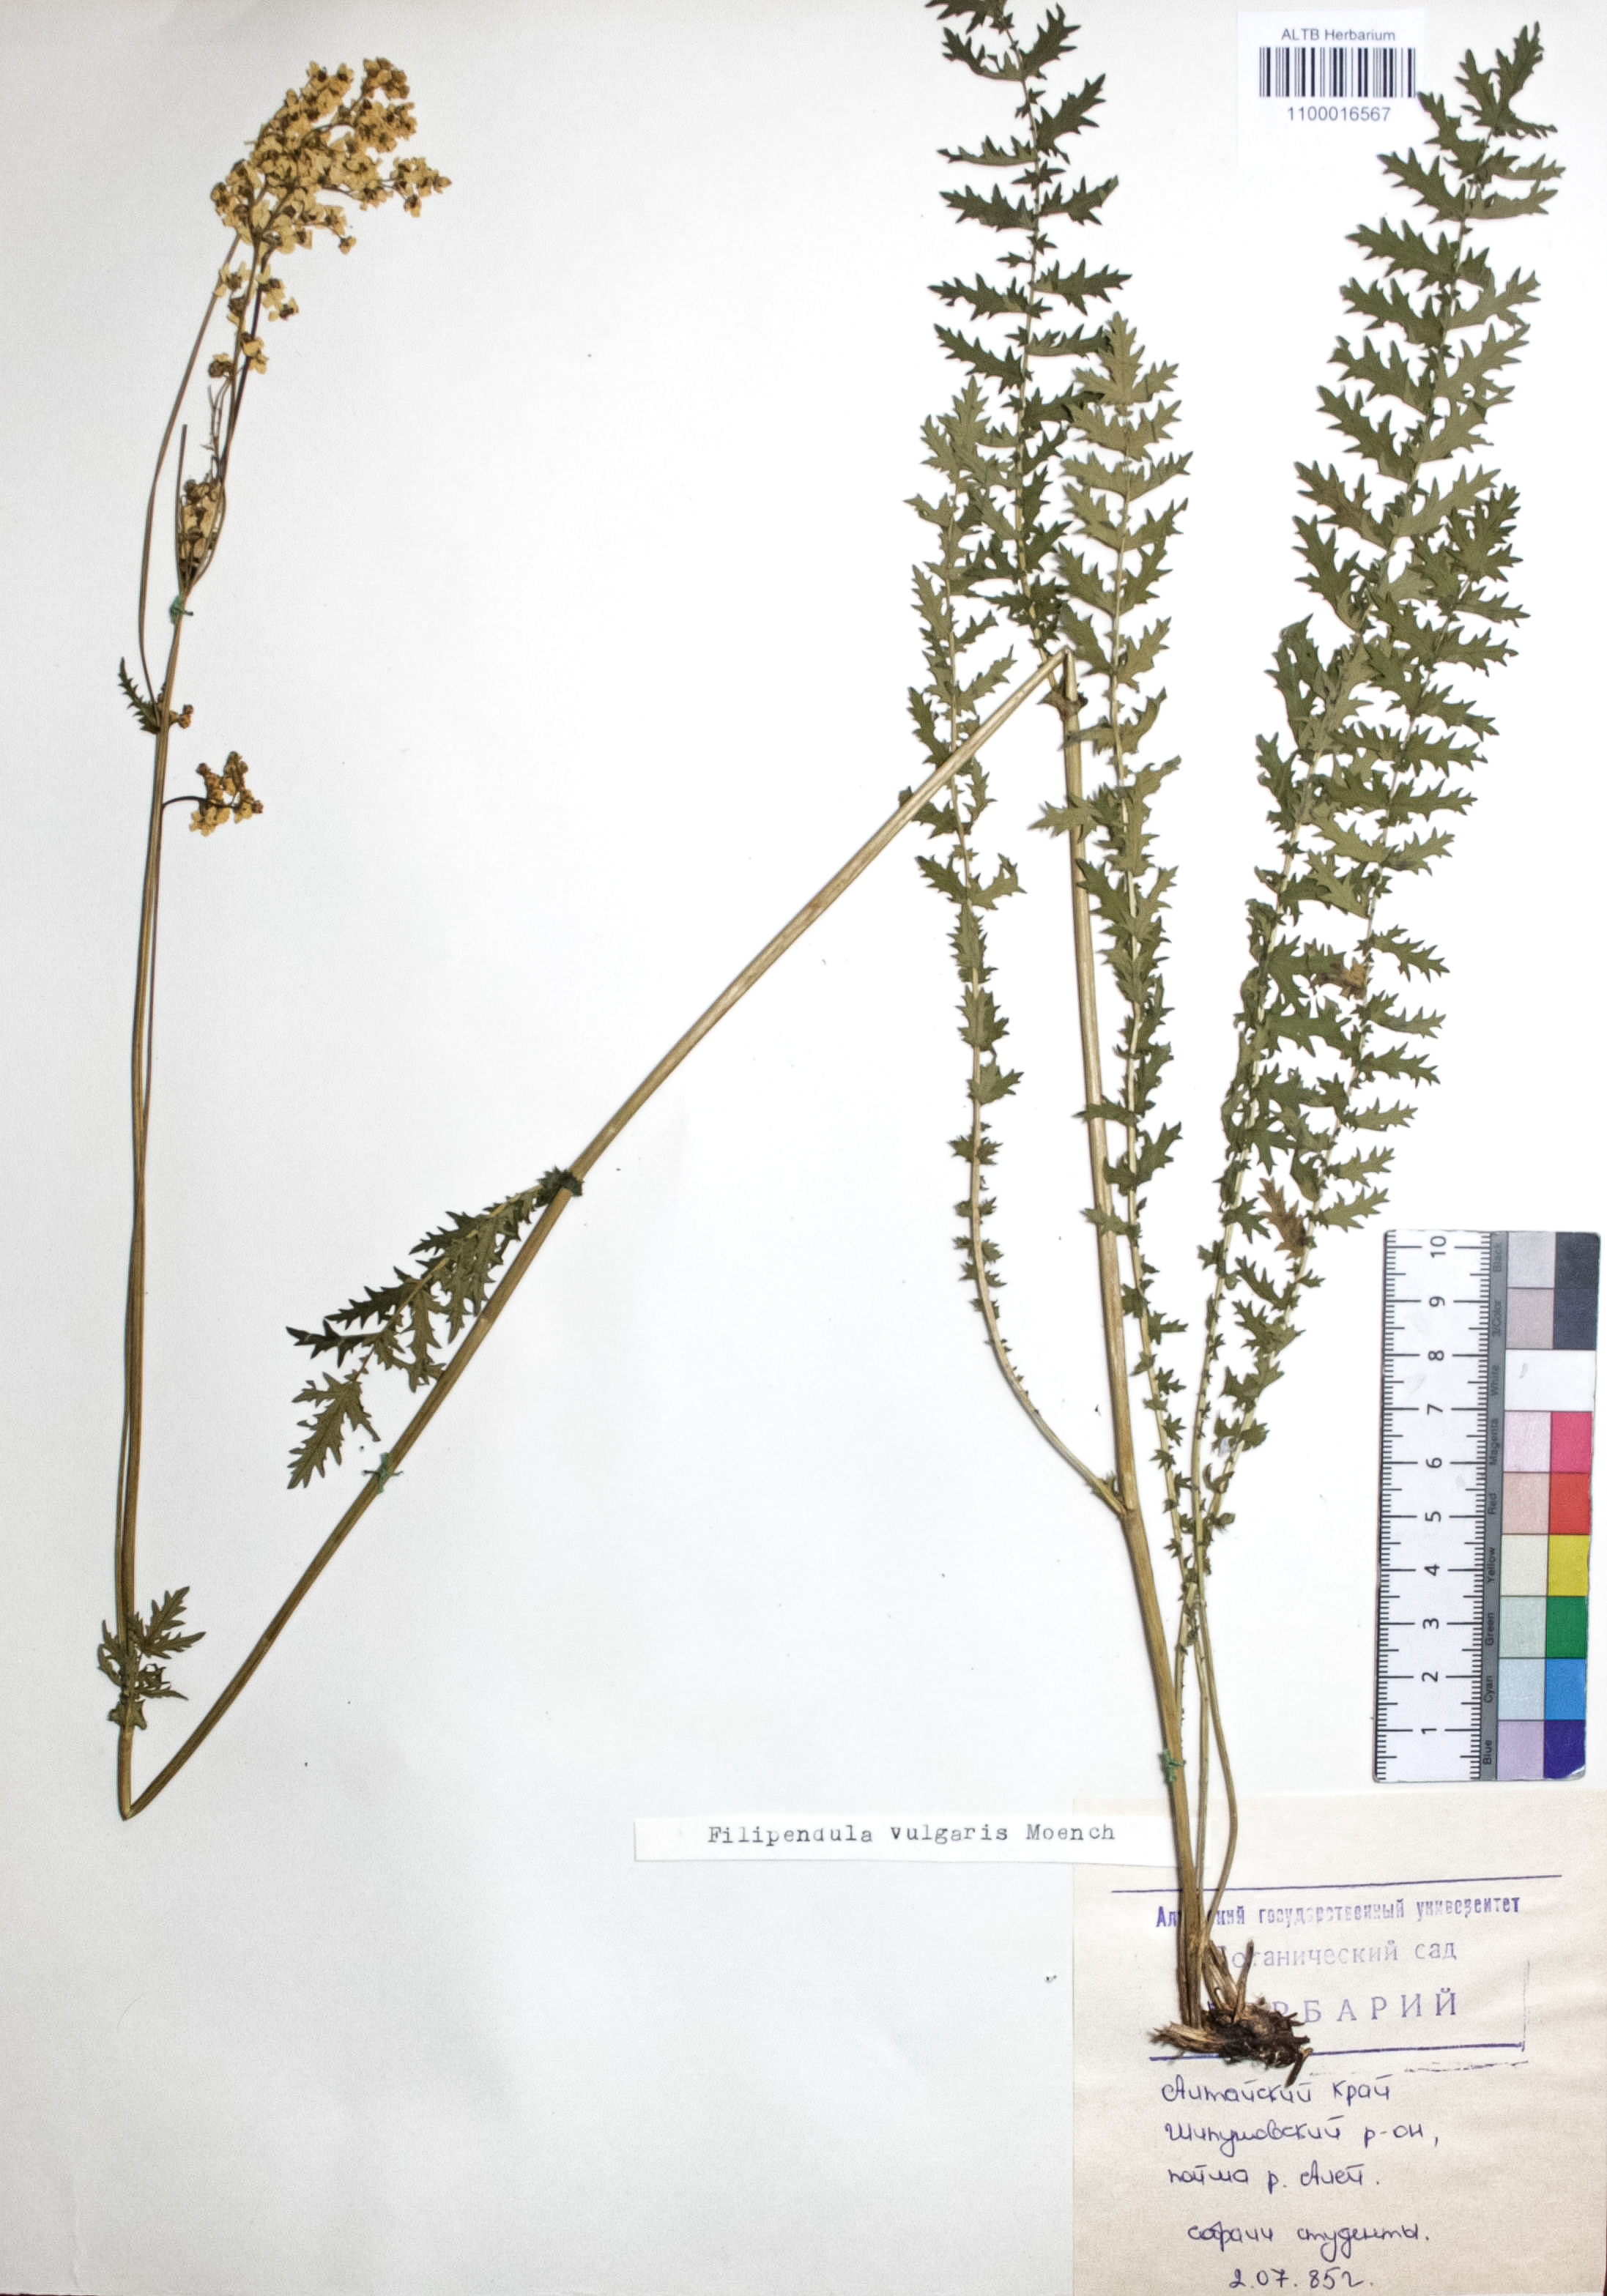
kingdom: Plantae
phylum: Tracheophyta
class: Magnoliopsida
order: Rosales
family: Rosaceae
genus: Filipendula
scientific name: Filipendula vulgaris
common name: Dropwort
